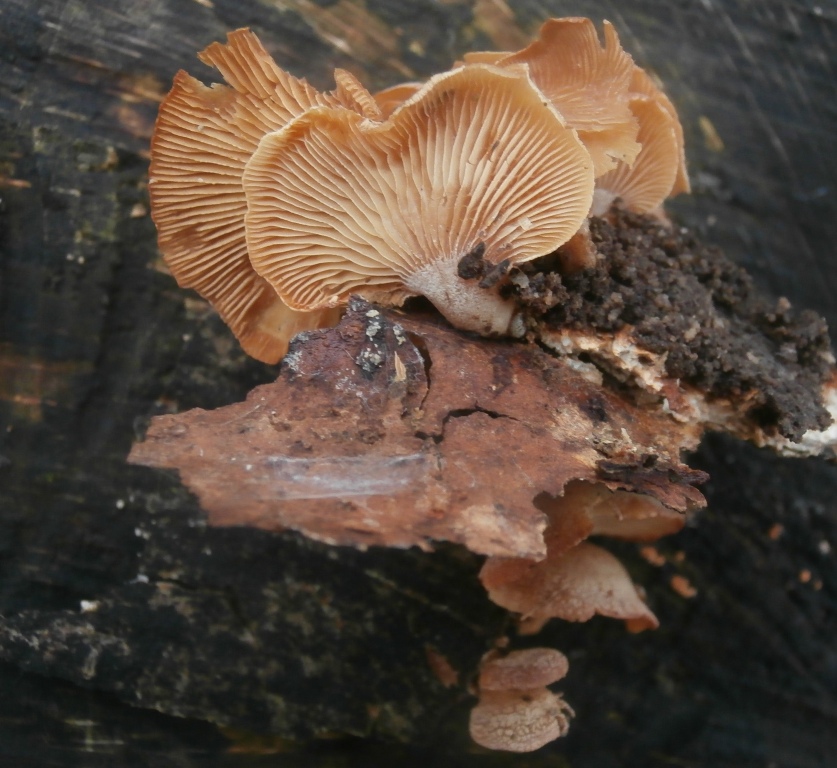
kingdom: Fungi
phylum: Basidiomycota
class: Agaricomycetes
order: Agaricales
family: Mycenaceae
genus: Panellus
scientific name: Panellus stipticus
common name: kliddet epaulethat
